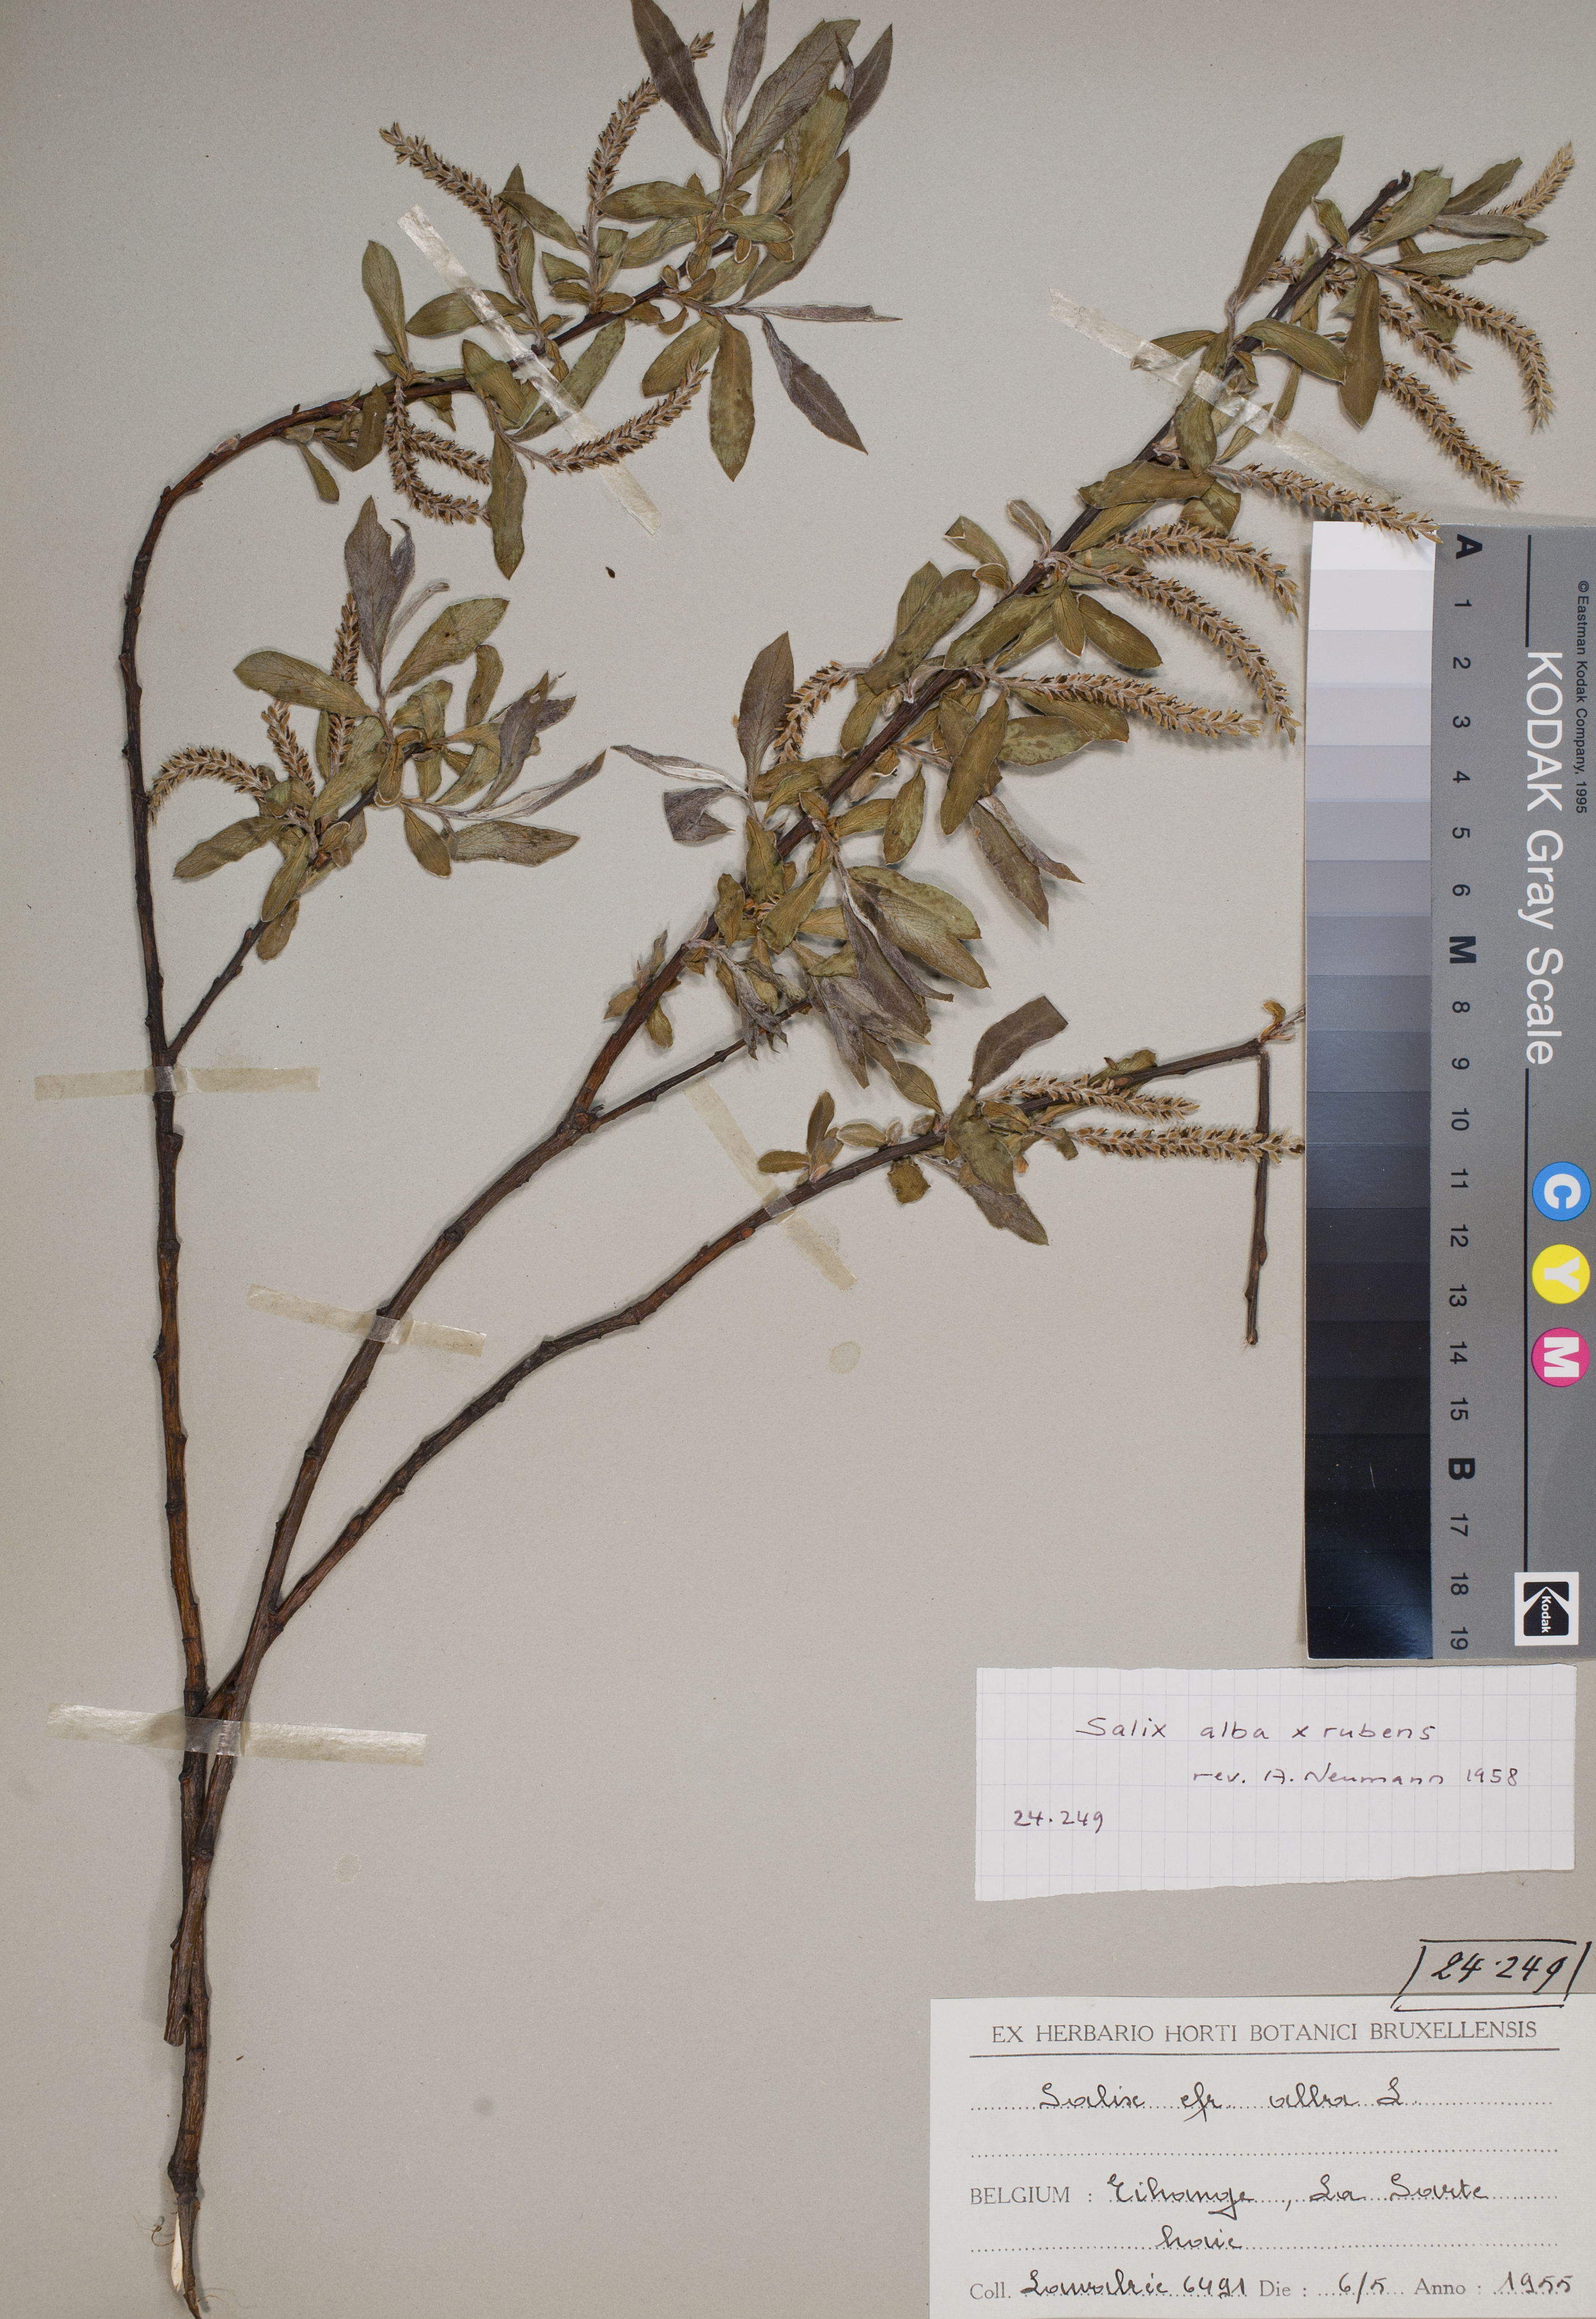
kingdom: Plantae
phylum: Tracheophyta
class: Magnoliopsida
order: Malpighiales
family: Salicaceae
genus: Salix
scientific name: Salix rubens
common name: Hybrid crack willow
